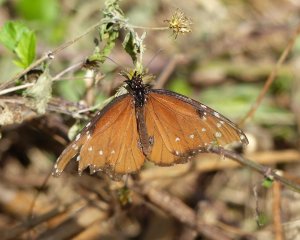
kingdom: Animalia
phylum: Arthropoda
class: Insecta
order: Lepidoptera
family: Nymphalidae
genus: Danaus
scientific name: Danaus gilippus
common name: Queen
